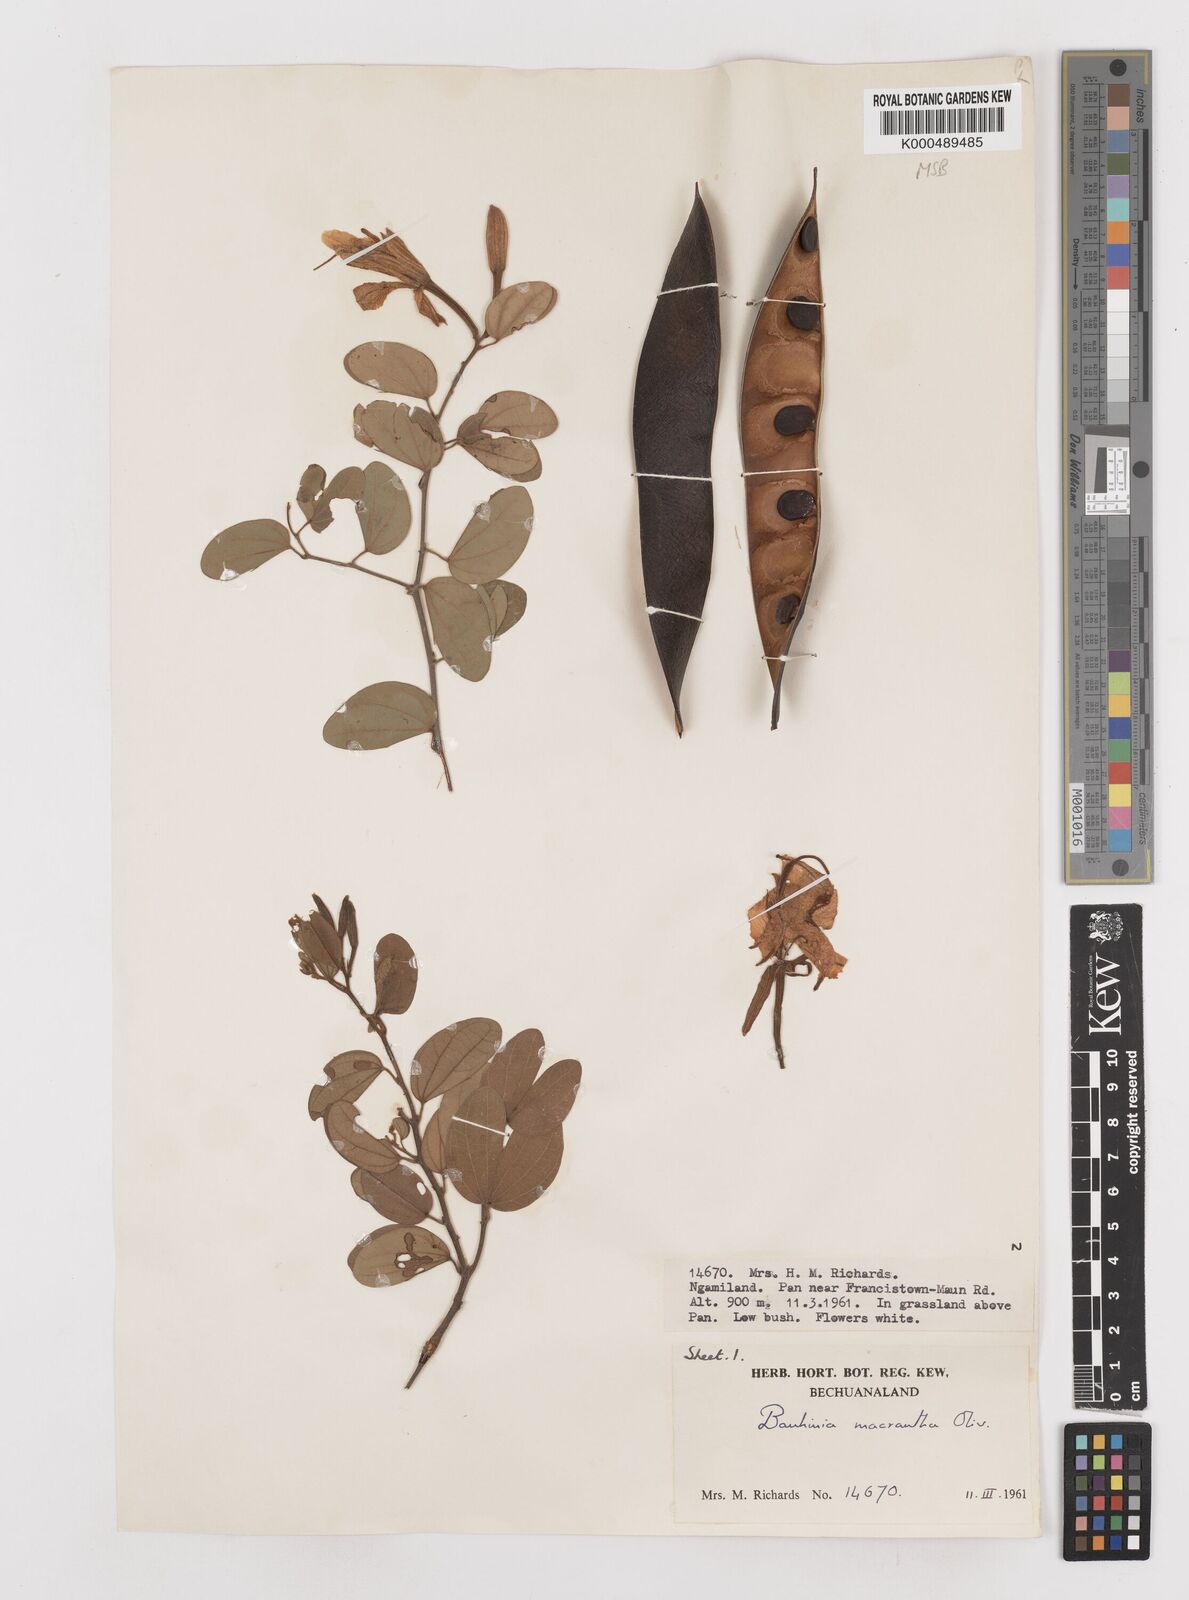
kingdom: Plantae
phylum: Tracheophyta
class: Magnoliopsida
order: Fabales
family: Fabaceae
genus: Bauhinia
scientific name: Bauhinia macrantha
